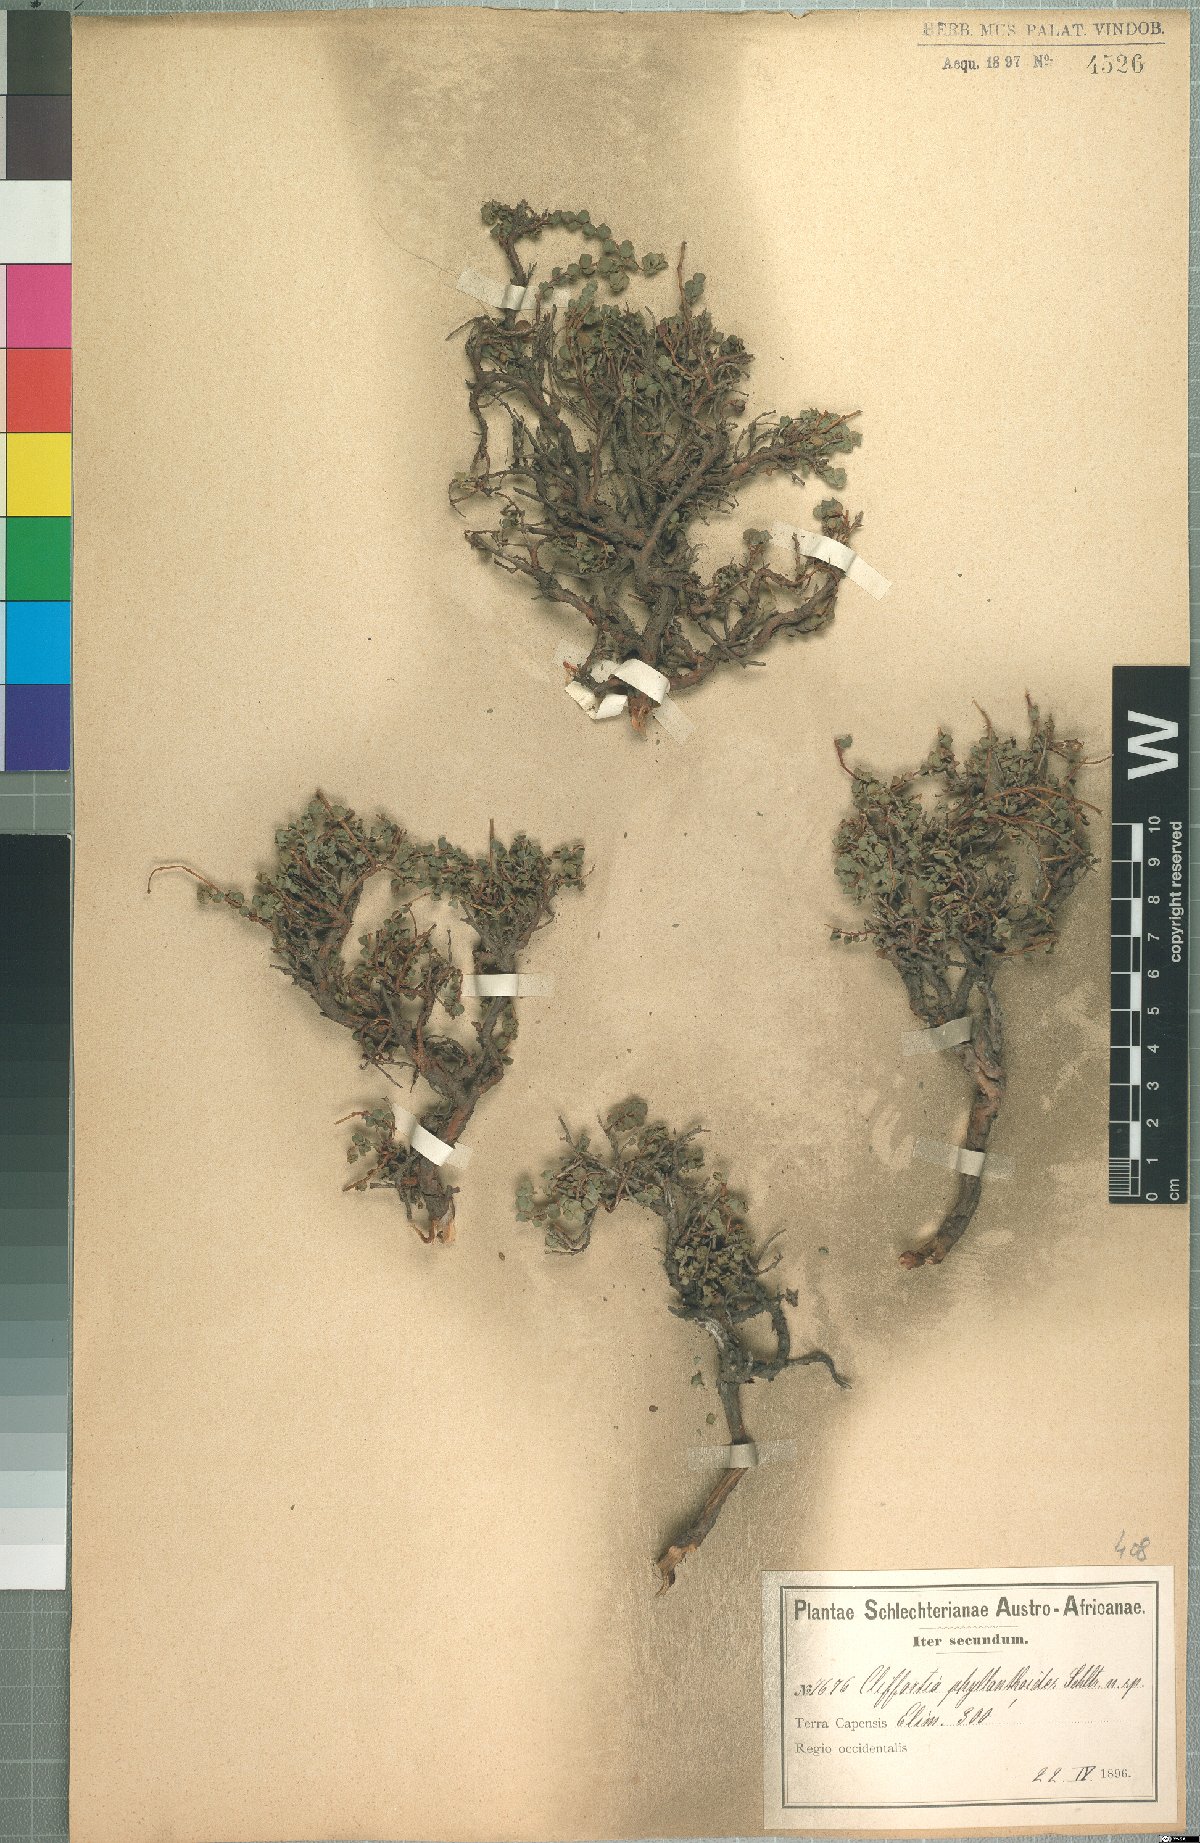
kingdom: Plantae
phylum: Tracheophyta
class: Magnoliopsida
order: Rosales
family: Rosaceae
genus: Cliffortia
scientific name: Cliffortia phyllanthoides
